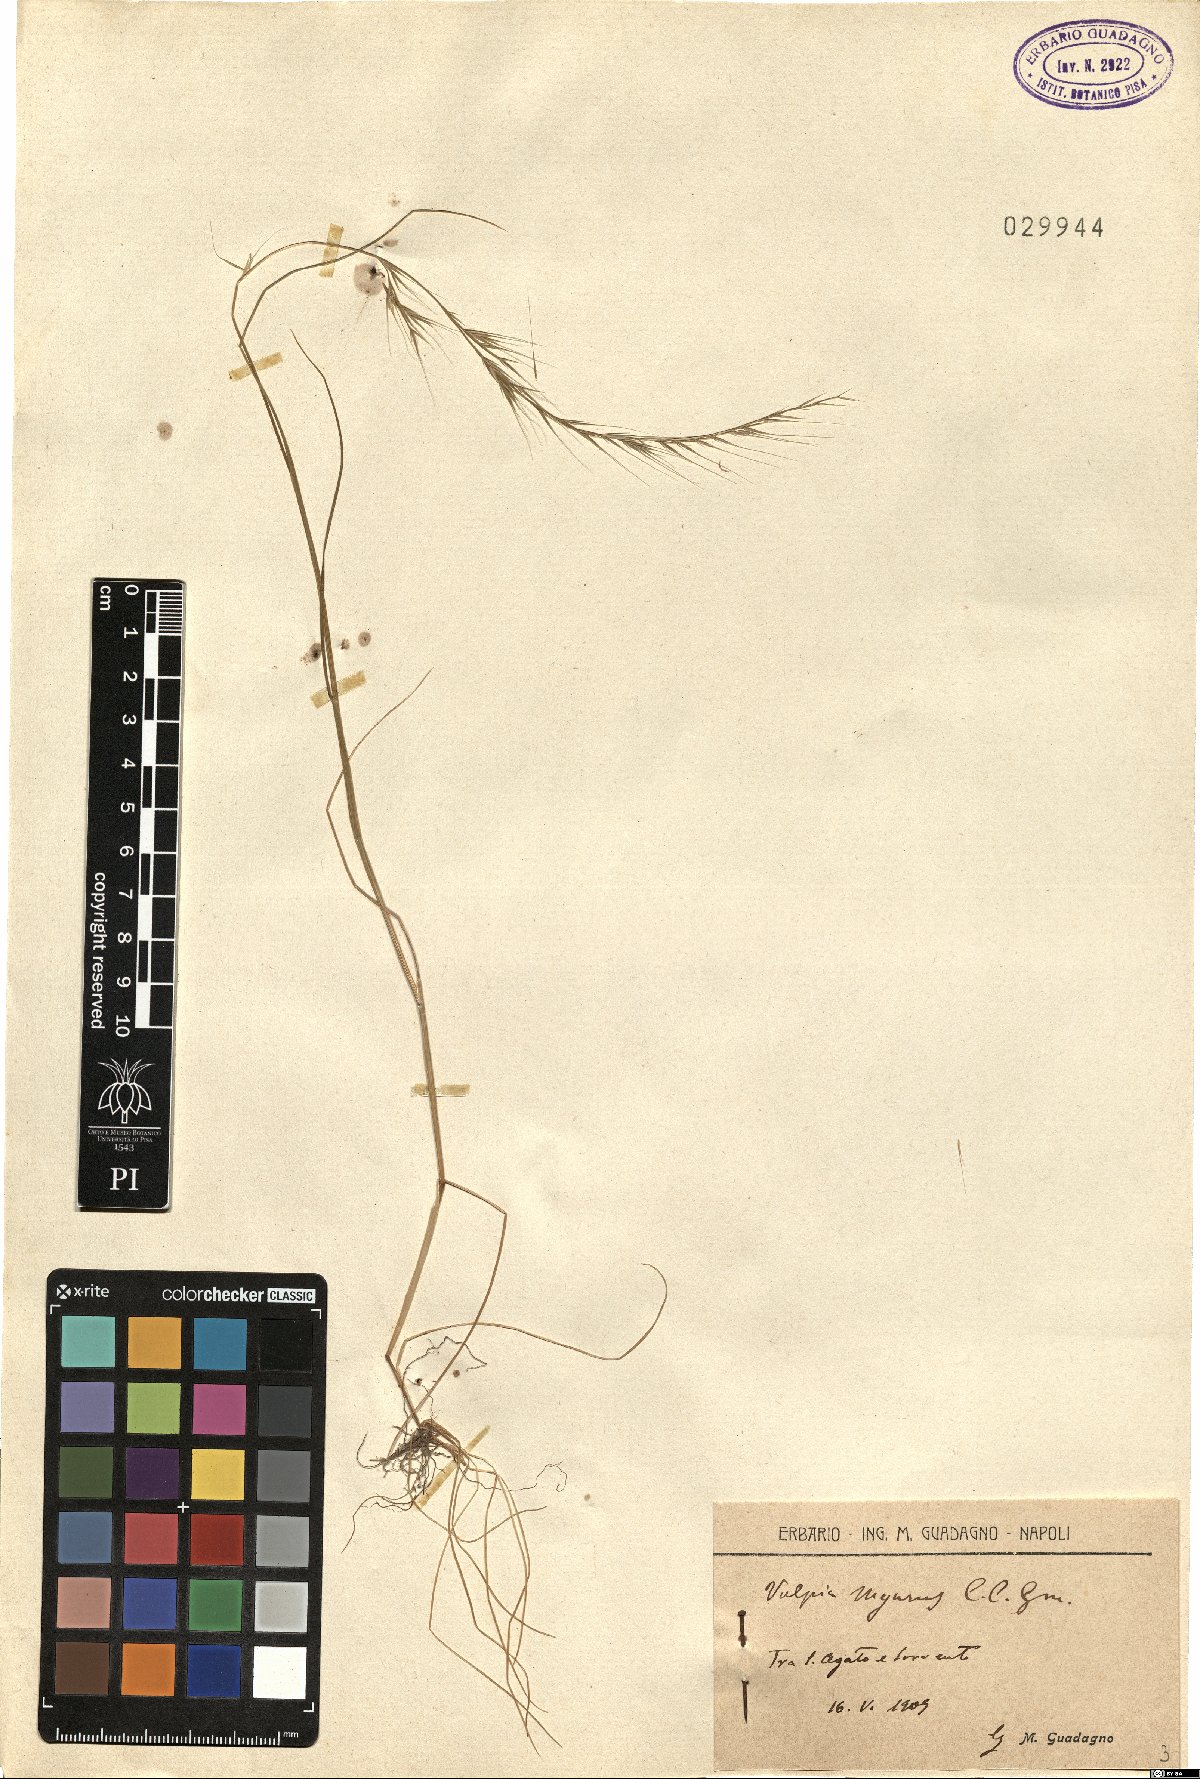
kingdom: Plantae
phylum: Tracheophyta
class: Liliopsida
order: Poales
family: Poaceae
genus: Festuca
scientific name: Festuca myuros
